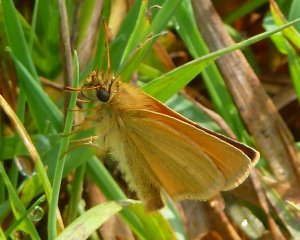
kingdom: Animalia
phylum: Arthropoda
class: Insecta
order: Lepidoptera
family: Hesperiidae
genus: Thymelicus
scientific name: Thymelicus lineola
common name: European Skipper
